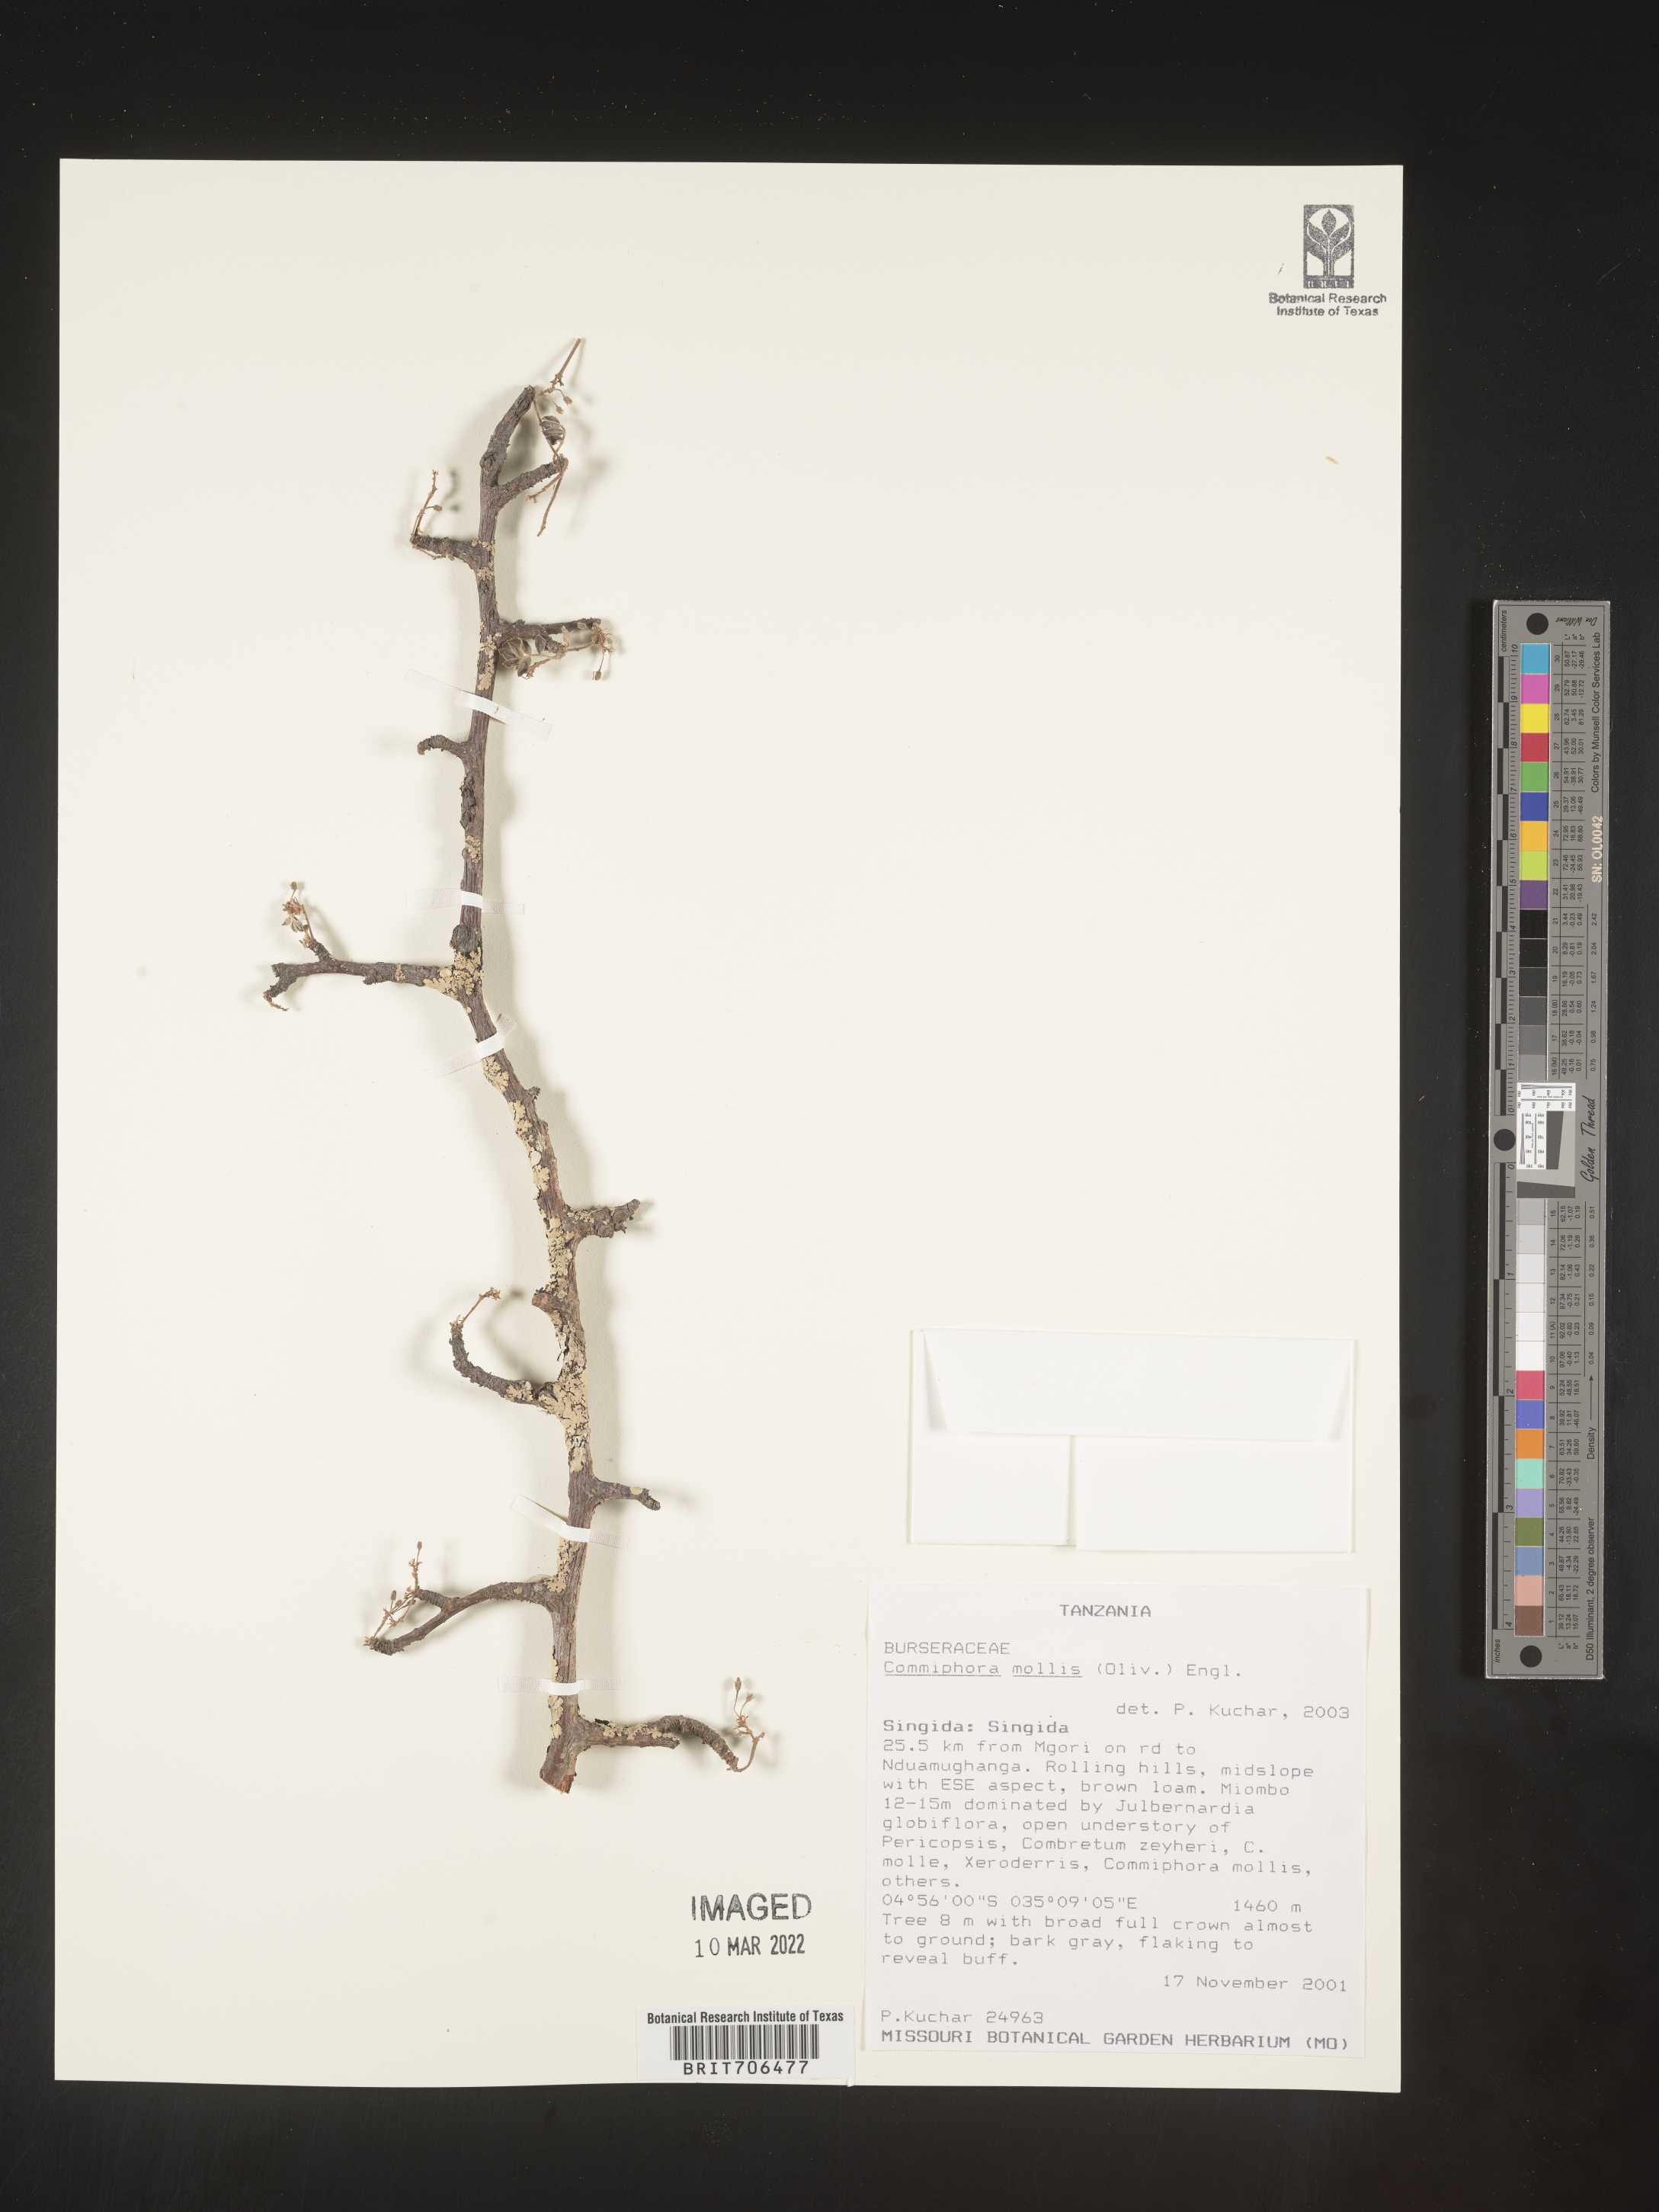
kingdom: Plantae
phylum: Tracheophyta
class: Magnoliopsida
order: Sapindales
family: Burseraceae
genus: Commiphora
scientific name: Commiphora
